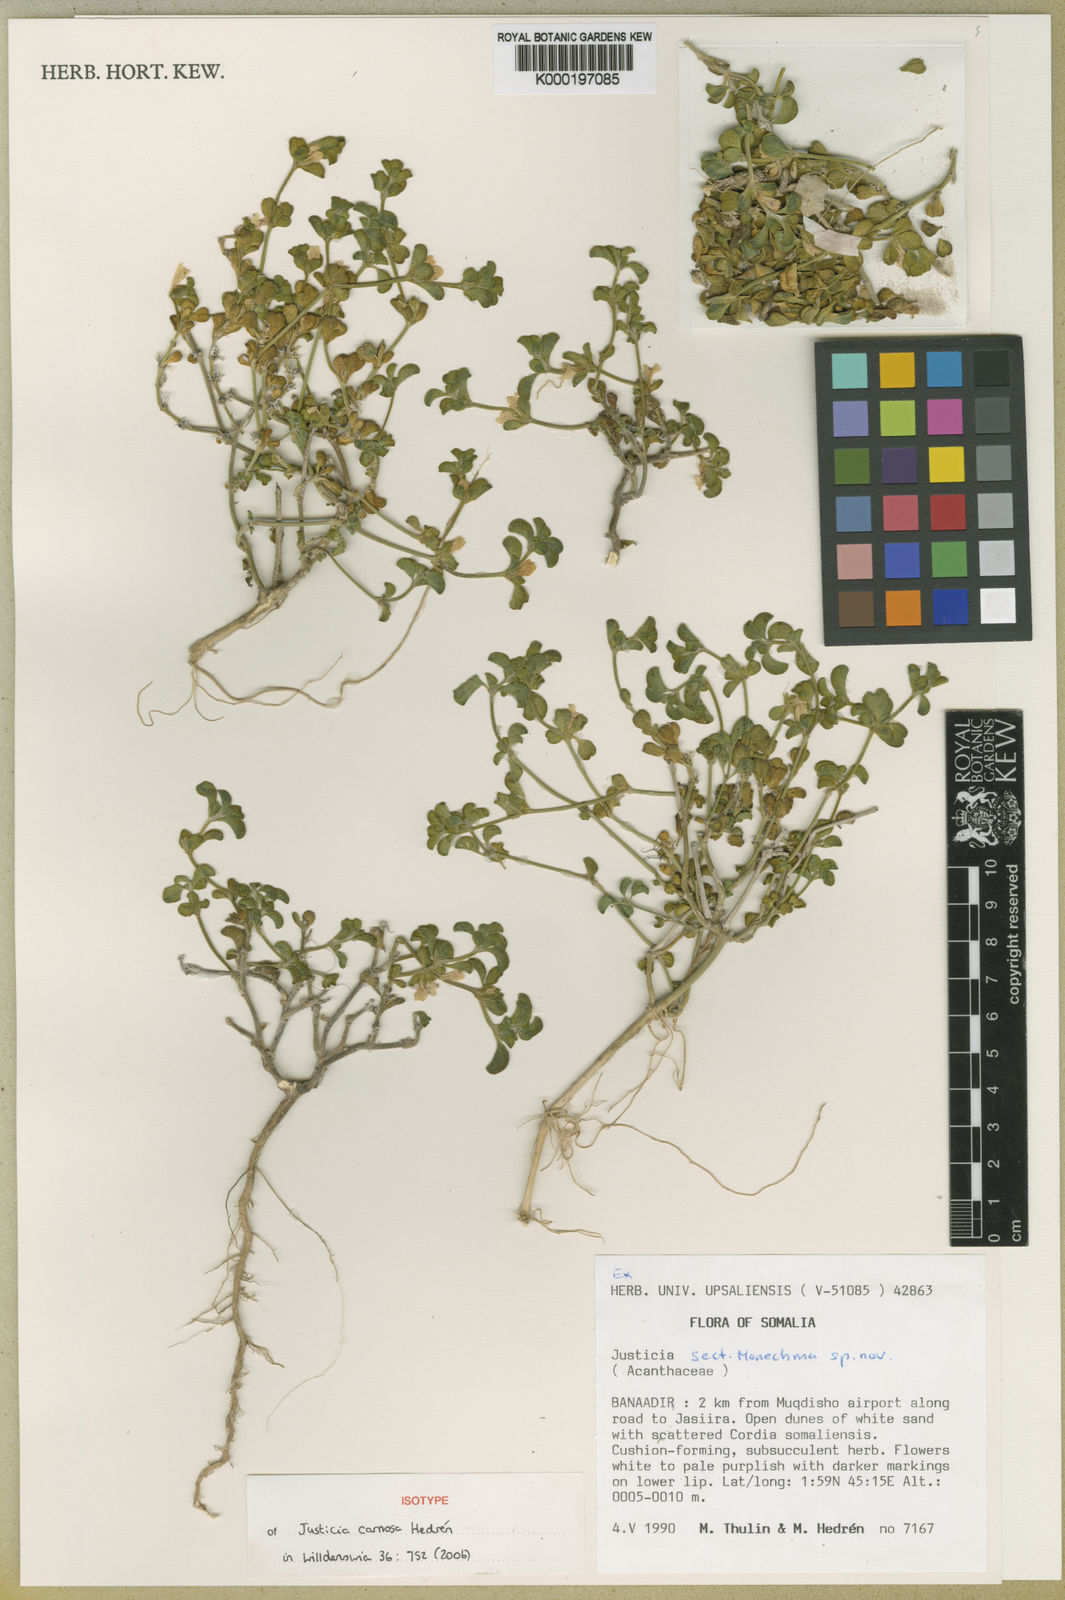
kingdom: Plantae
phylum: Tracheophyta
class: Magnoliopsida
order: Lamiales
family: Acanthaceae
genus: Justicia
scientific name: Justicia
